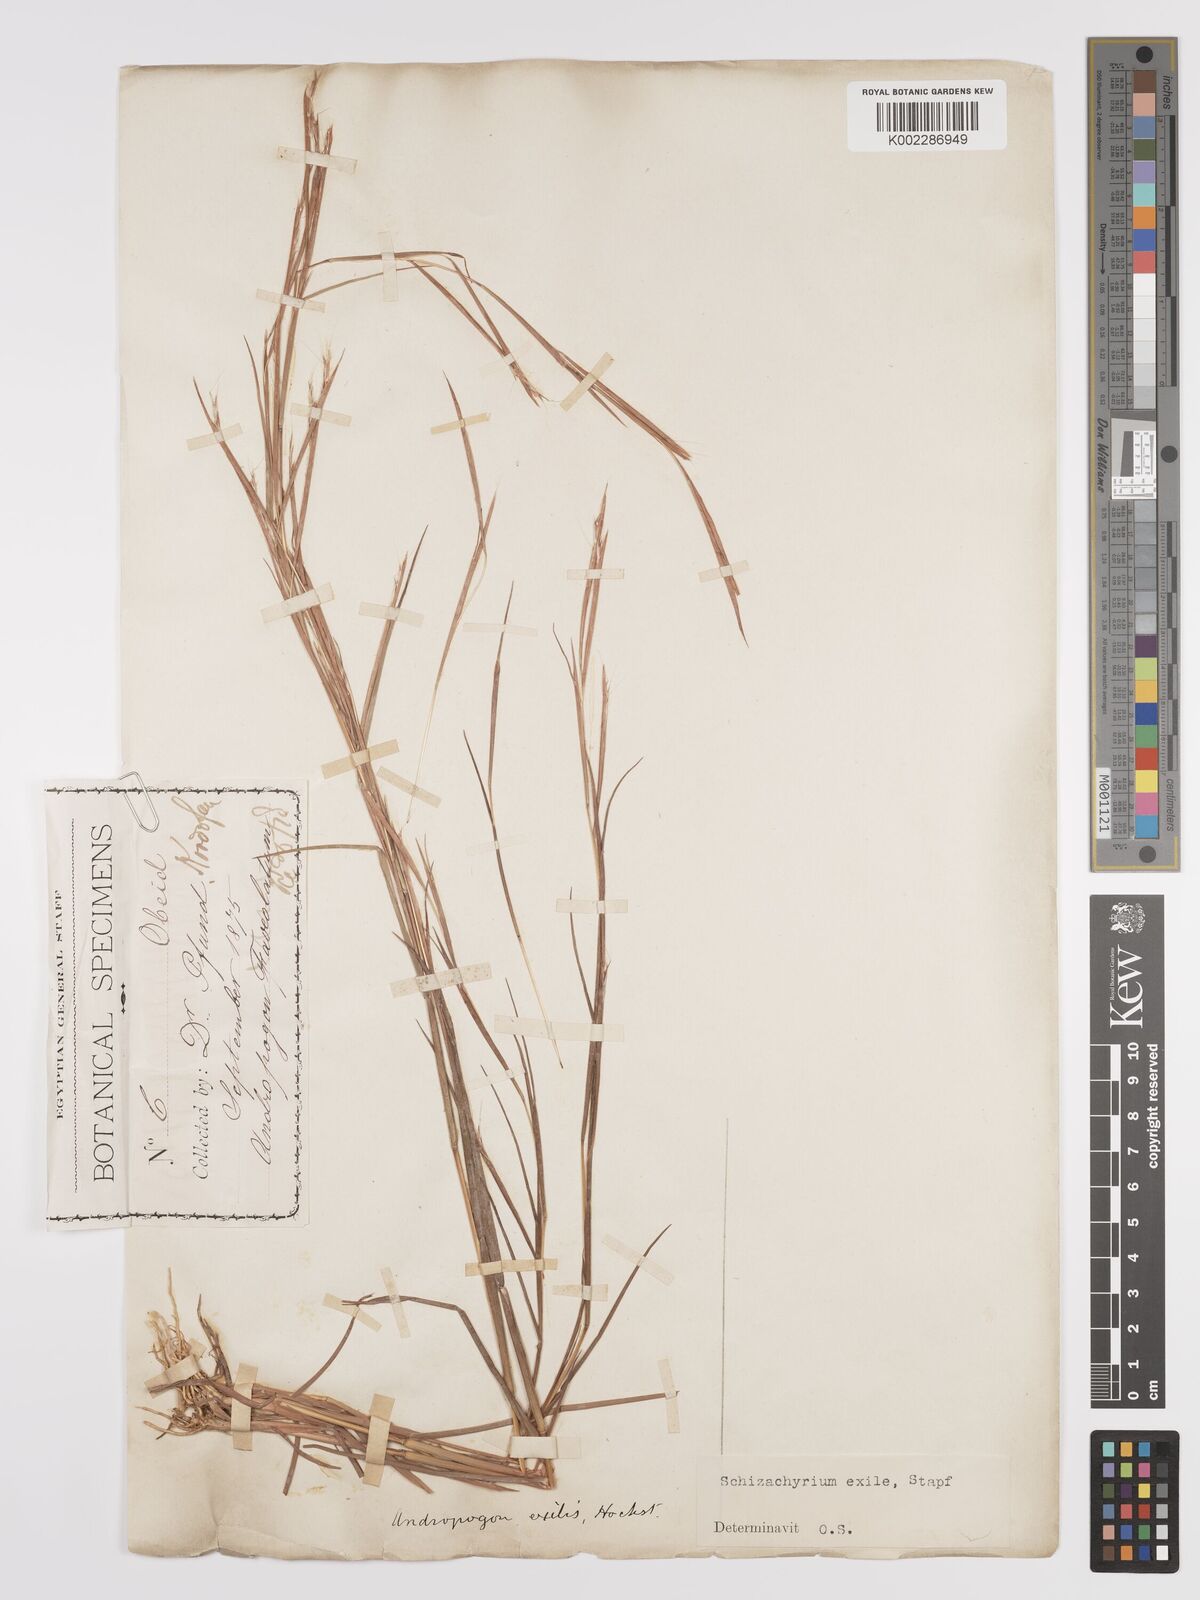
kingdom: Plantae
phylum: Tracheophyta
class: Liliopsida
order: Poales
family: Poaceae
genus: Schizachyrium
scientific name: Schizachyrium exile
